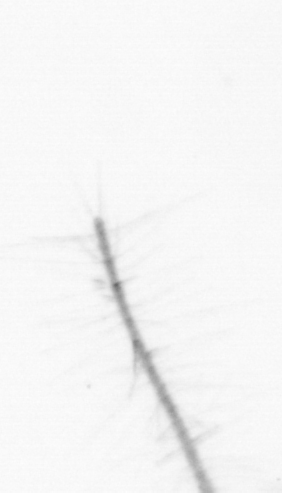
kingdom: Chromista
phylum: Ochrophyta
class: Bacillariophyceae
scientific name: Bacillariophyceae
